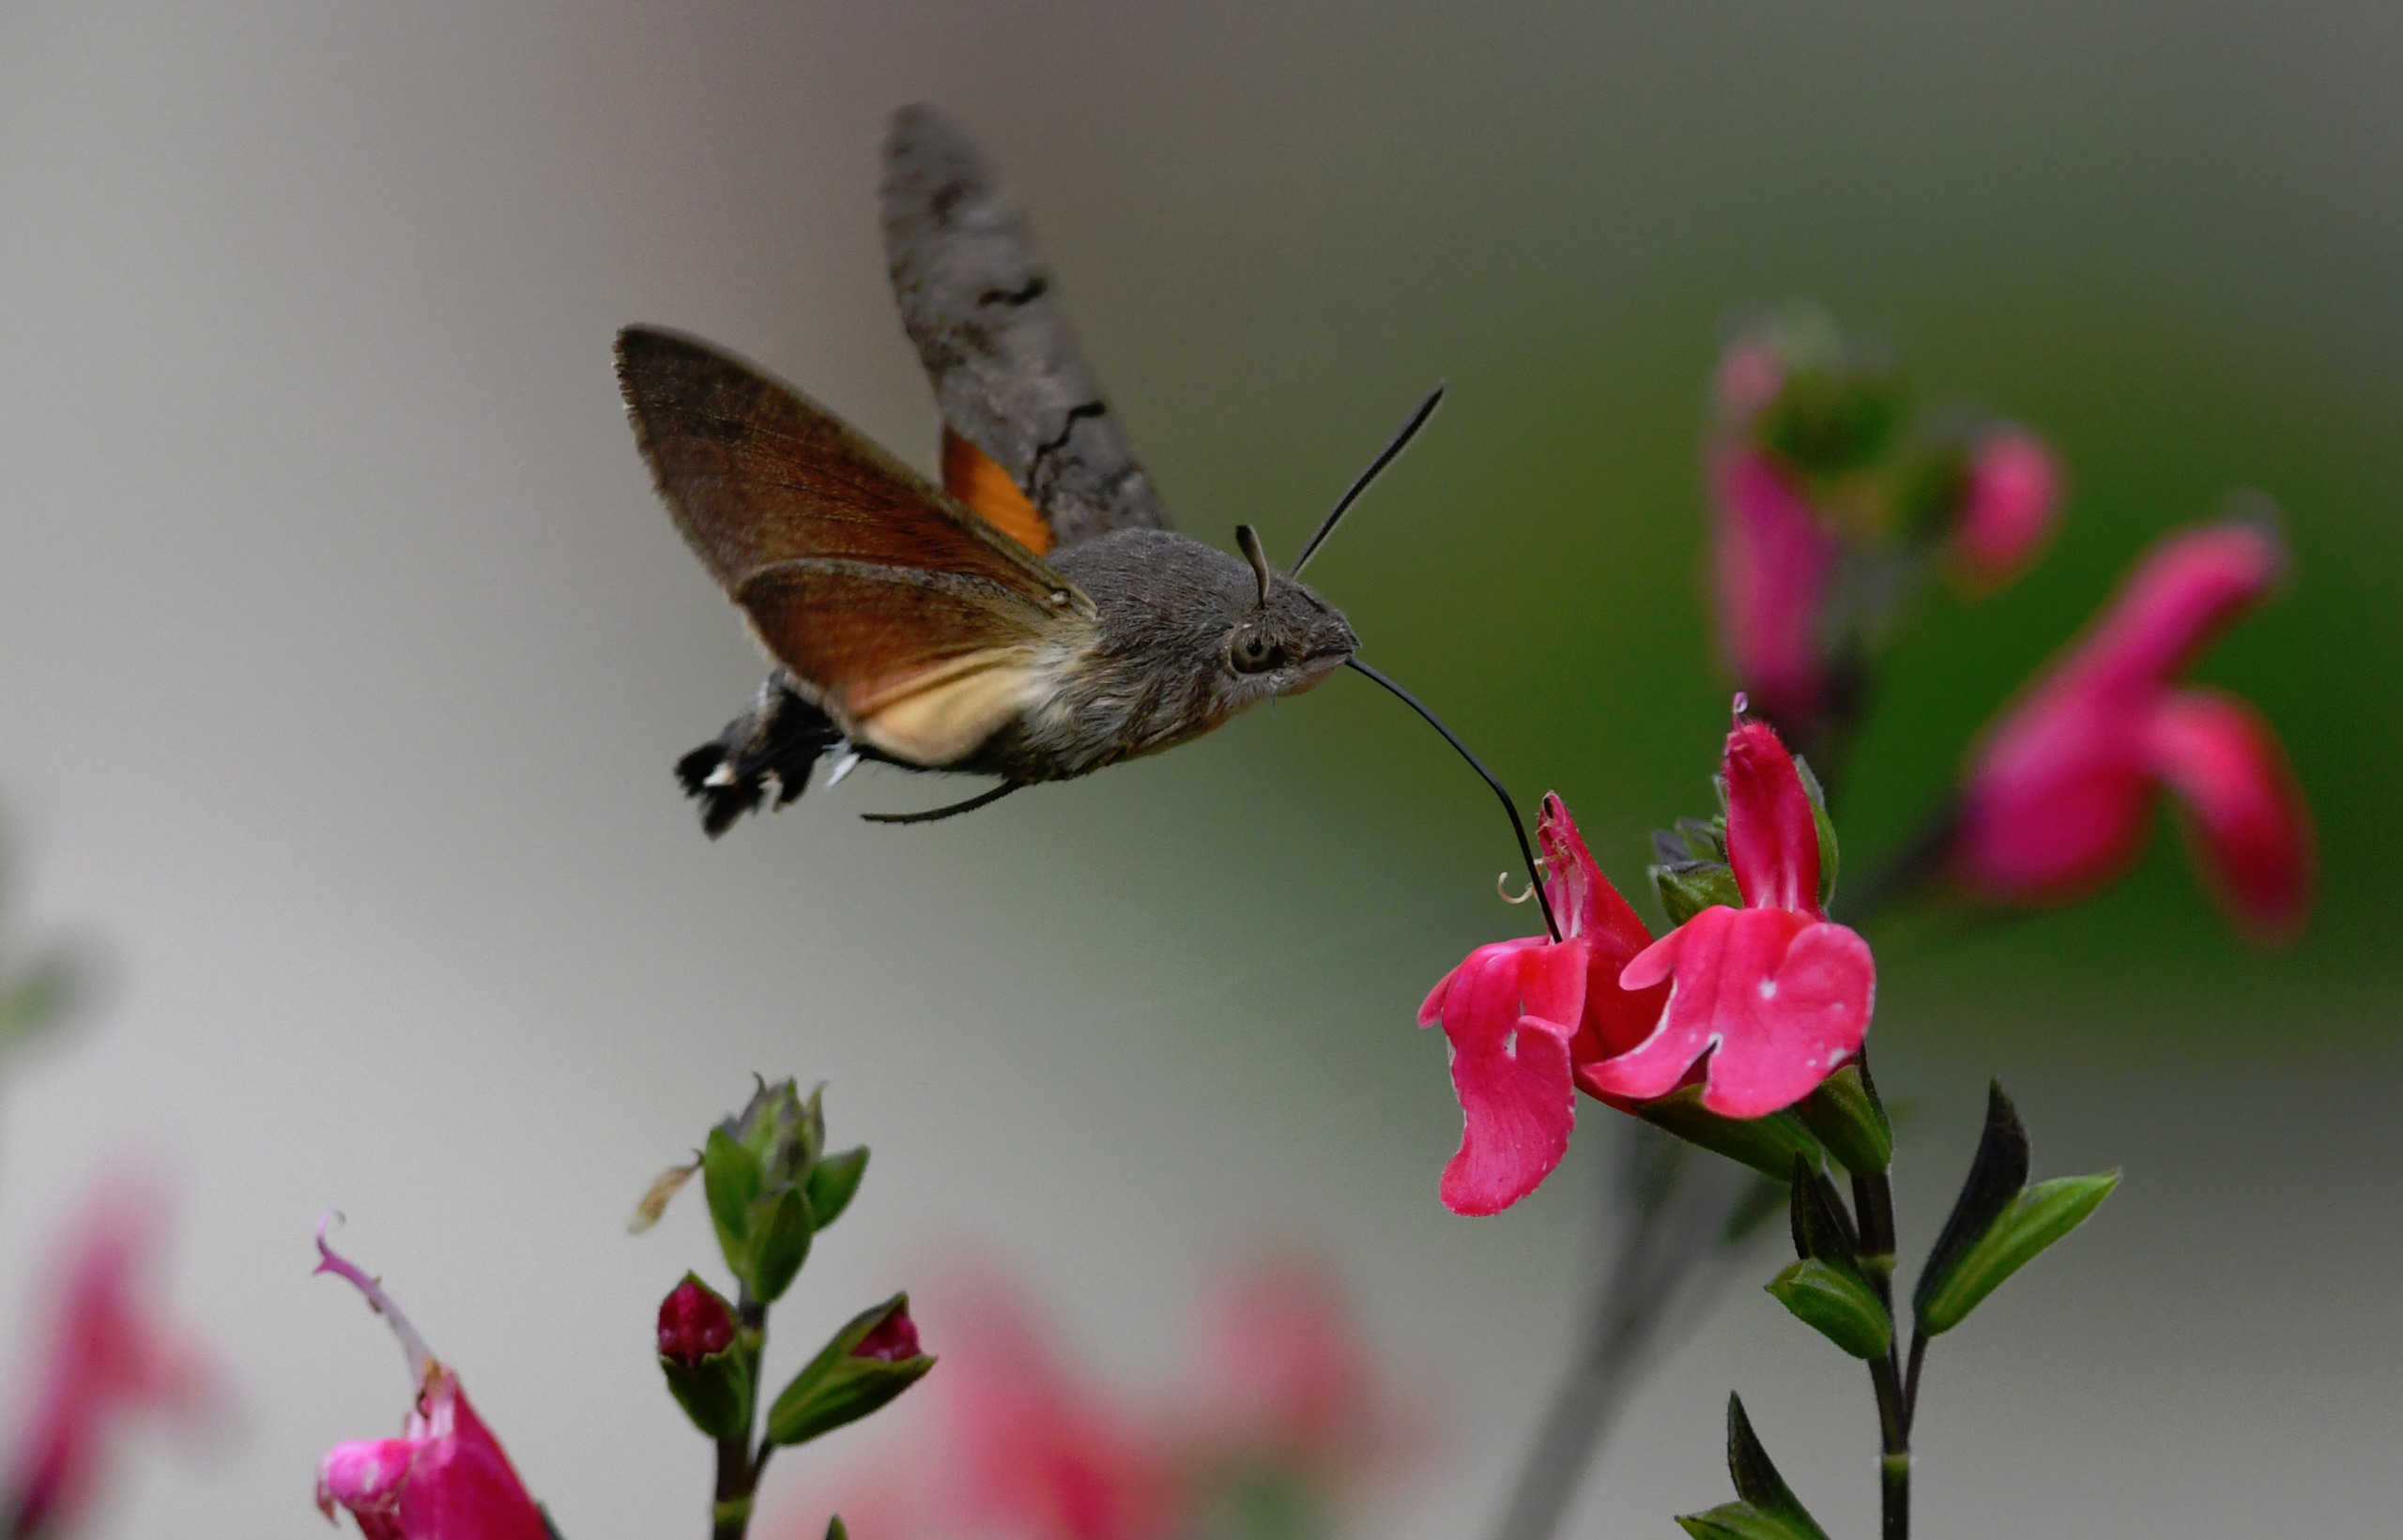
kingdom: Animalia
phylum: Arthropoda
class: Insecta
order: Lepidoptera
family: Sphingidae
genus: Macroglossum
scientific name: Macroglossum stellatarum
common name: Duehale
